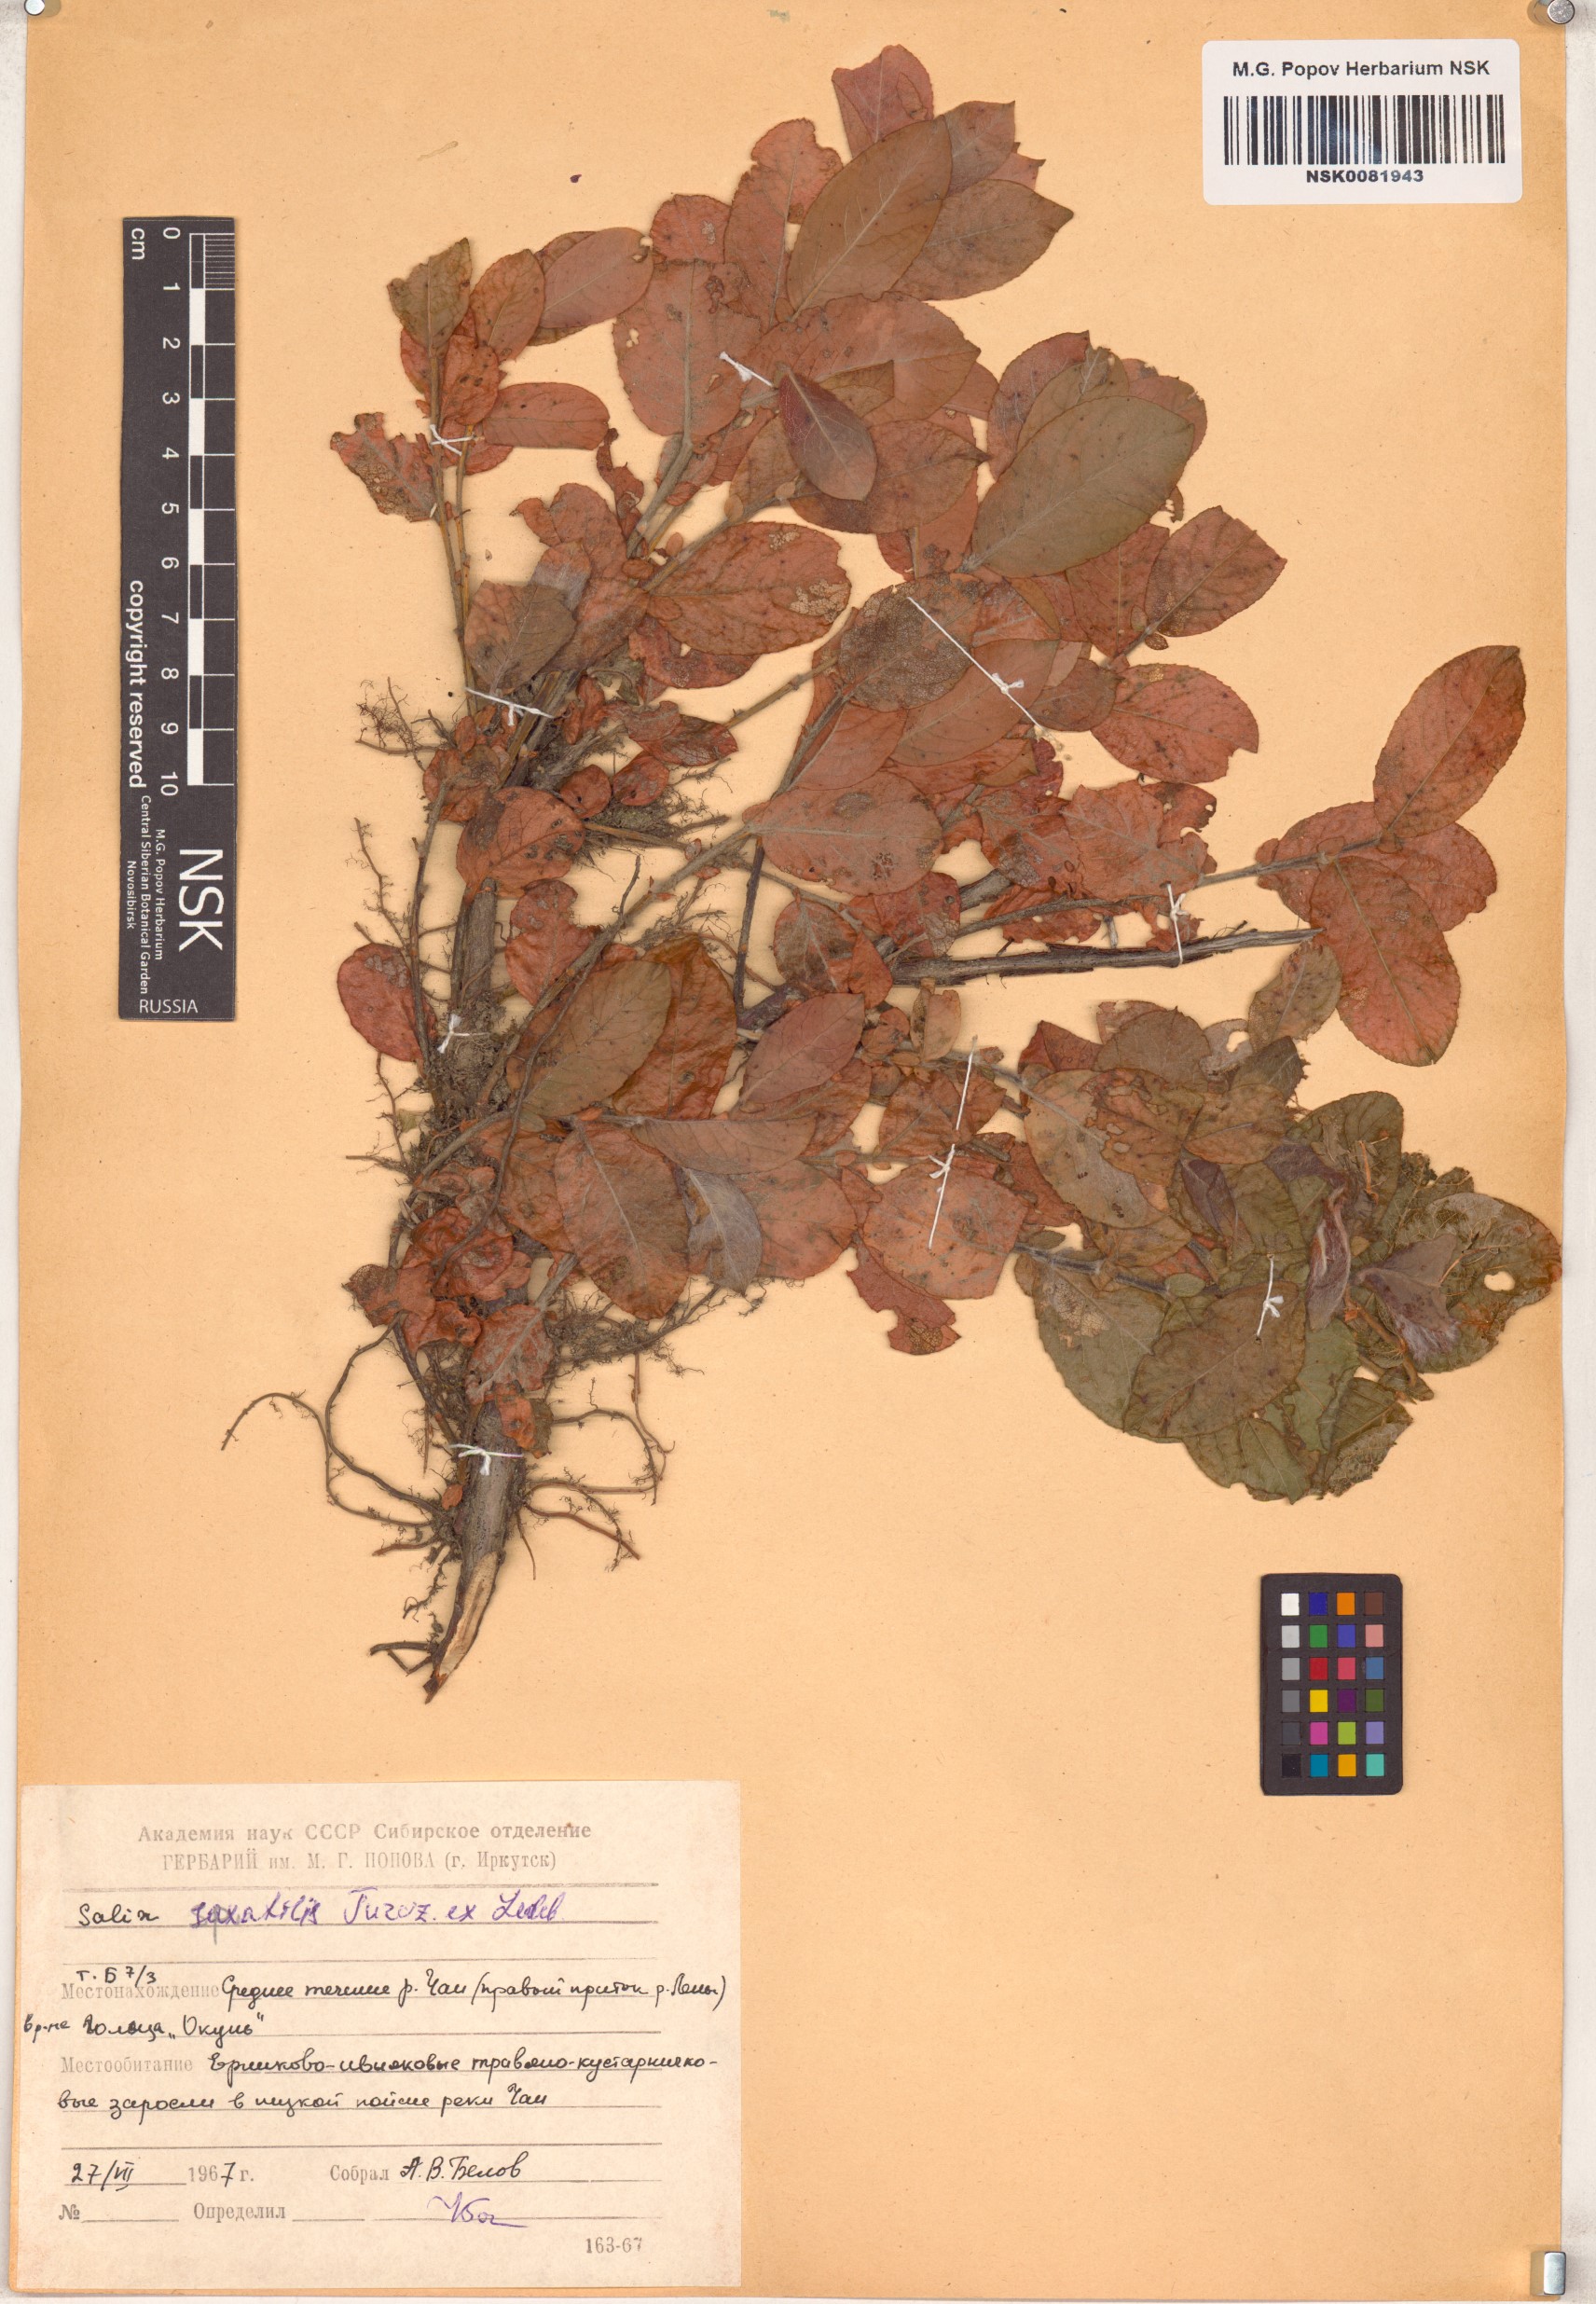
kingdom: Plantae
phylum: Tracheophyta
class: Magnoliopsida
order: Malpighiales
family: Salicaceae
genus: Salix
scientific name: Salix saxatilis
